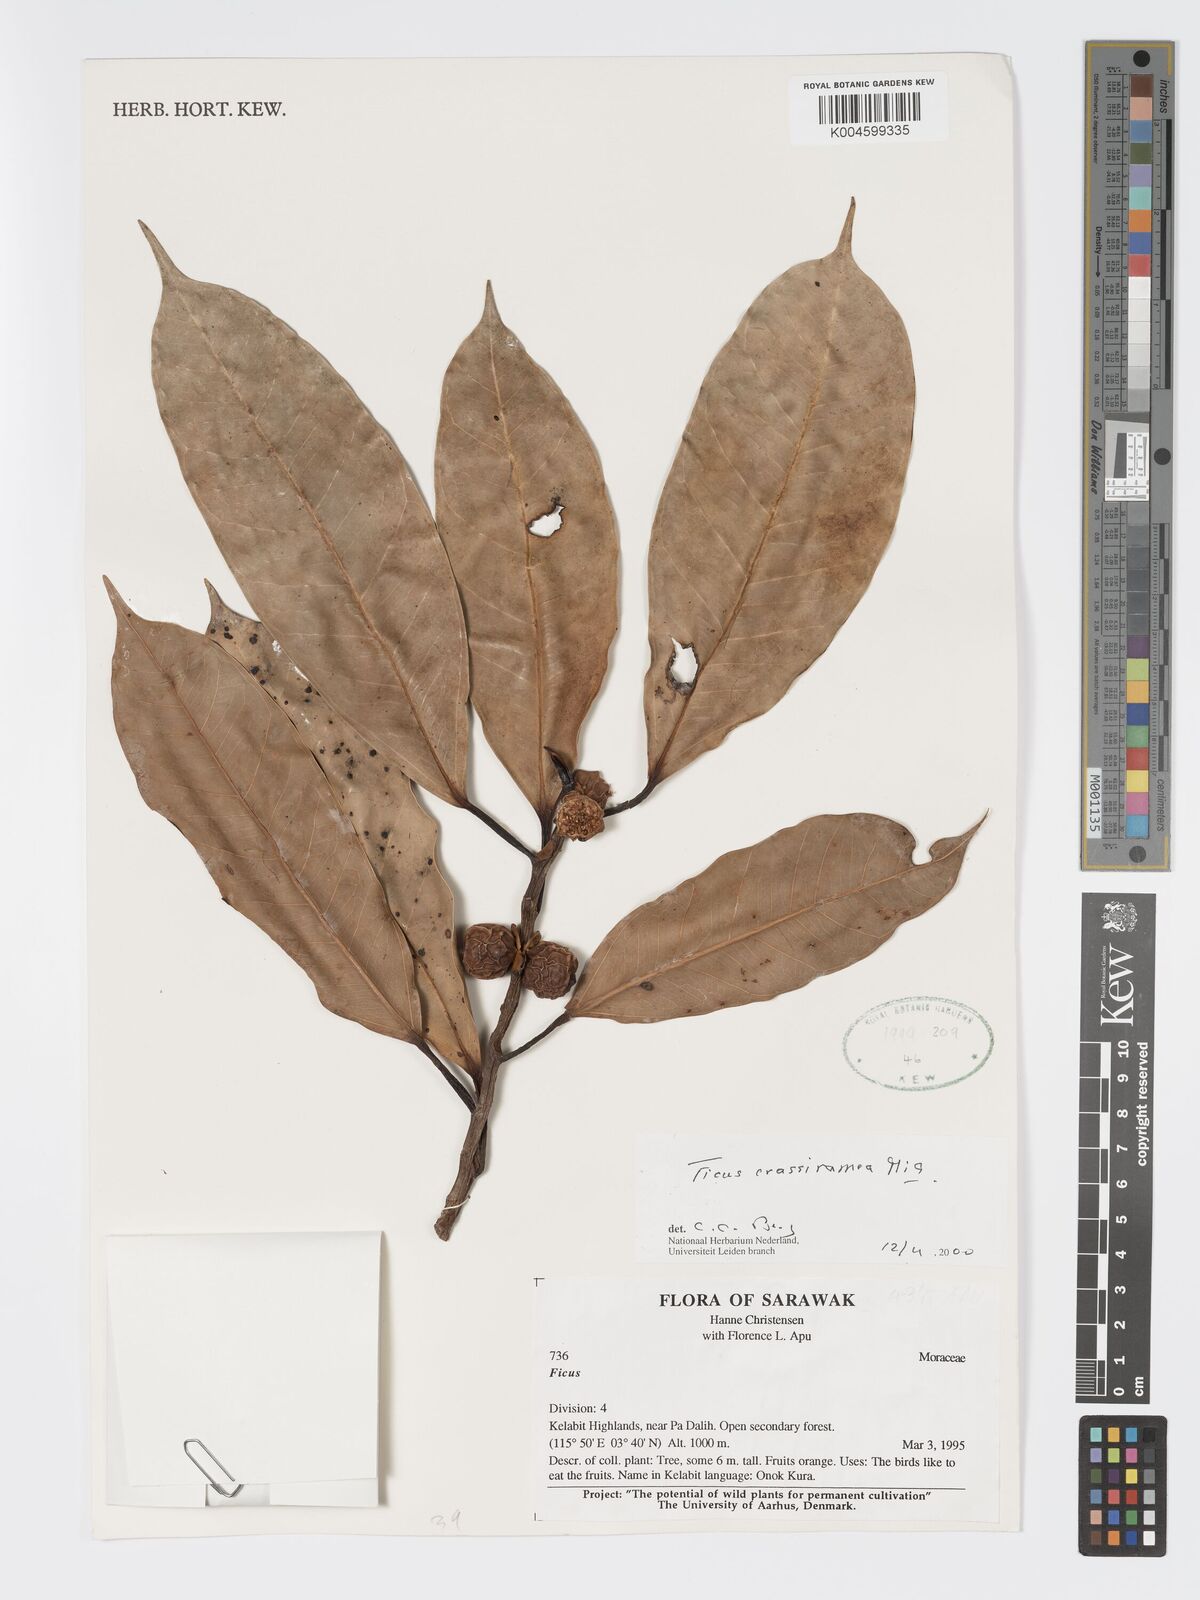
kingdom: Plantae
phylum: Tracheophyta
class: Magnoliopsida
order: Rosales
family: Moraceae
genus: Ficus
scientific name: Ficus crassiramea
